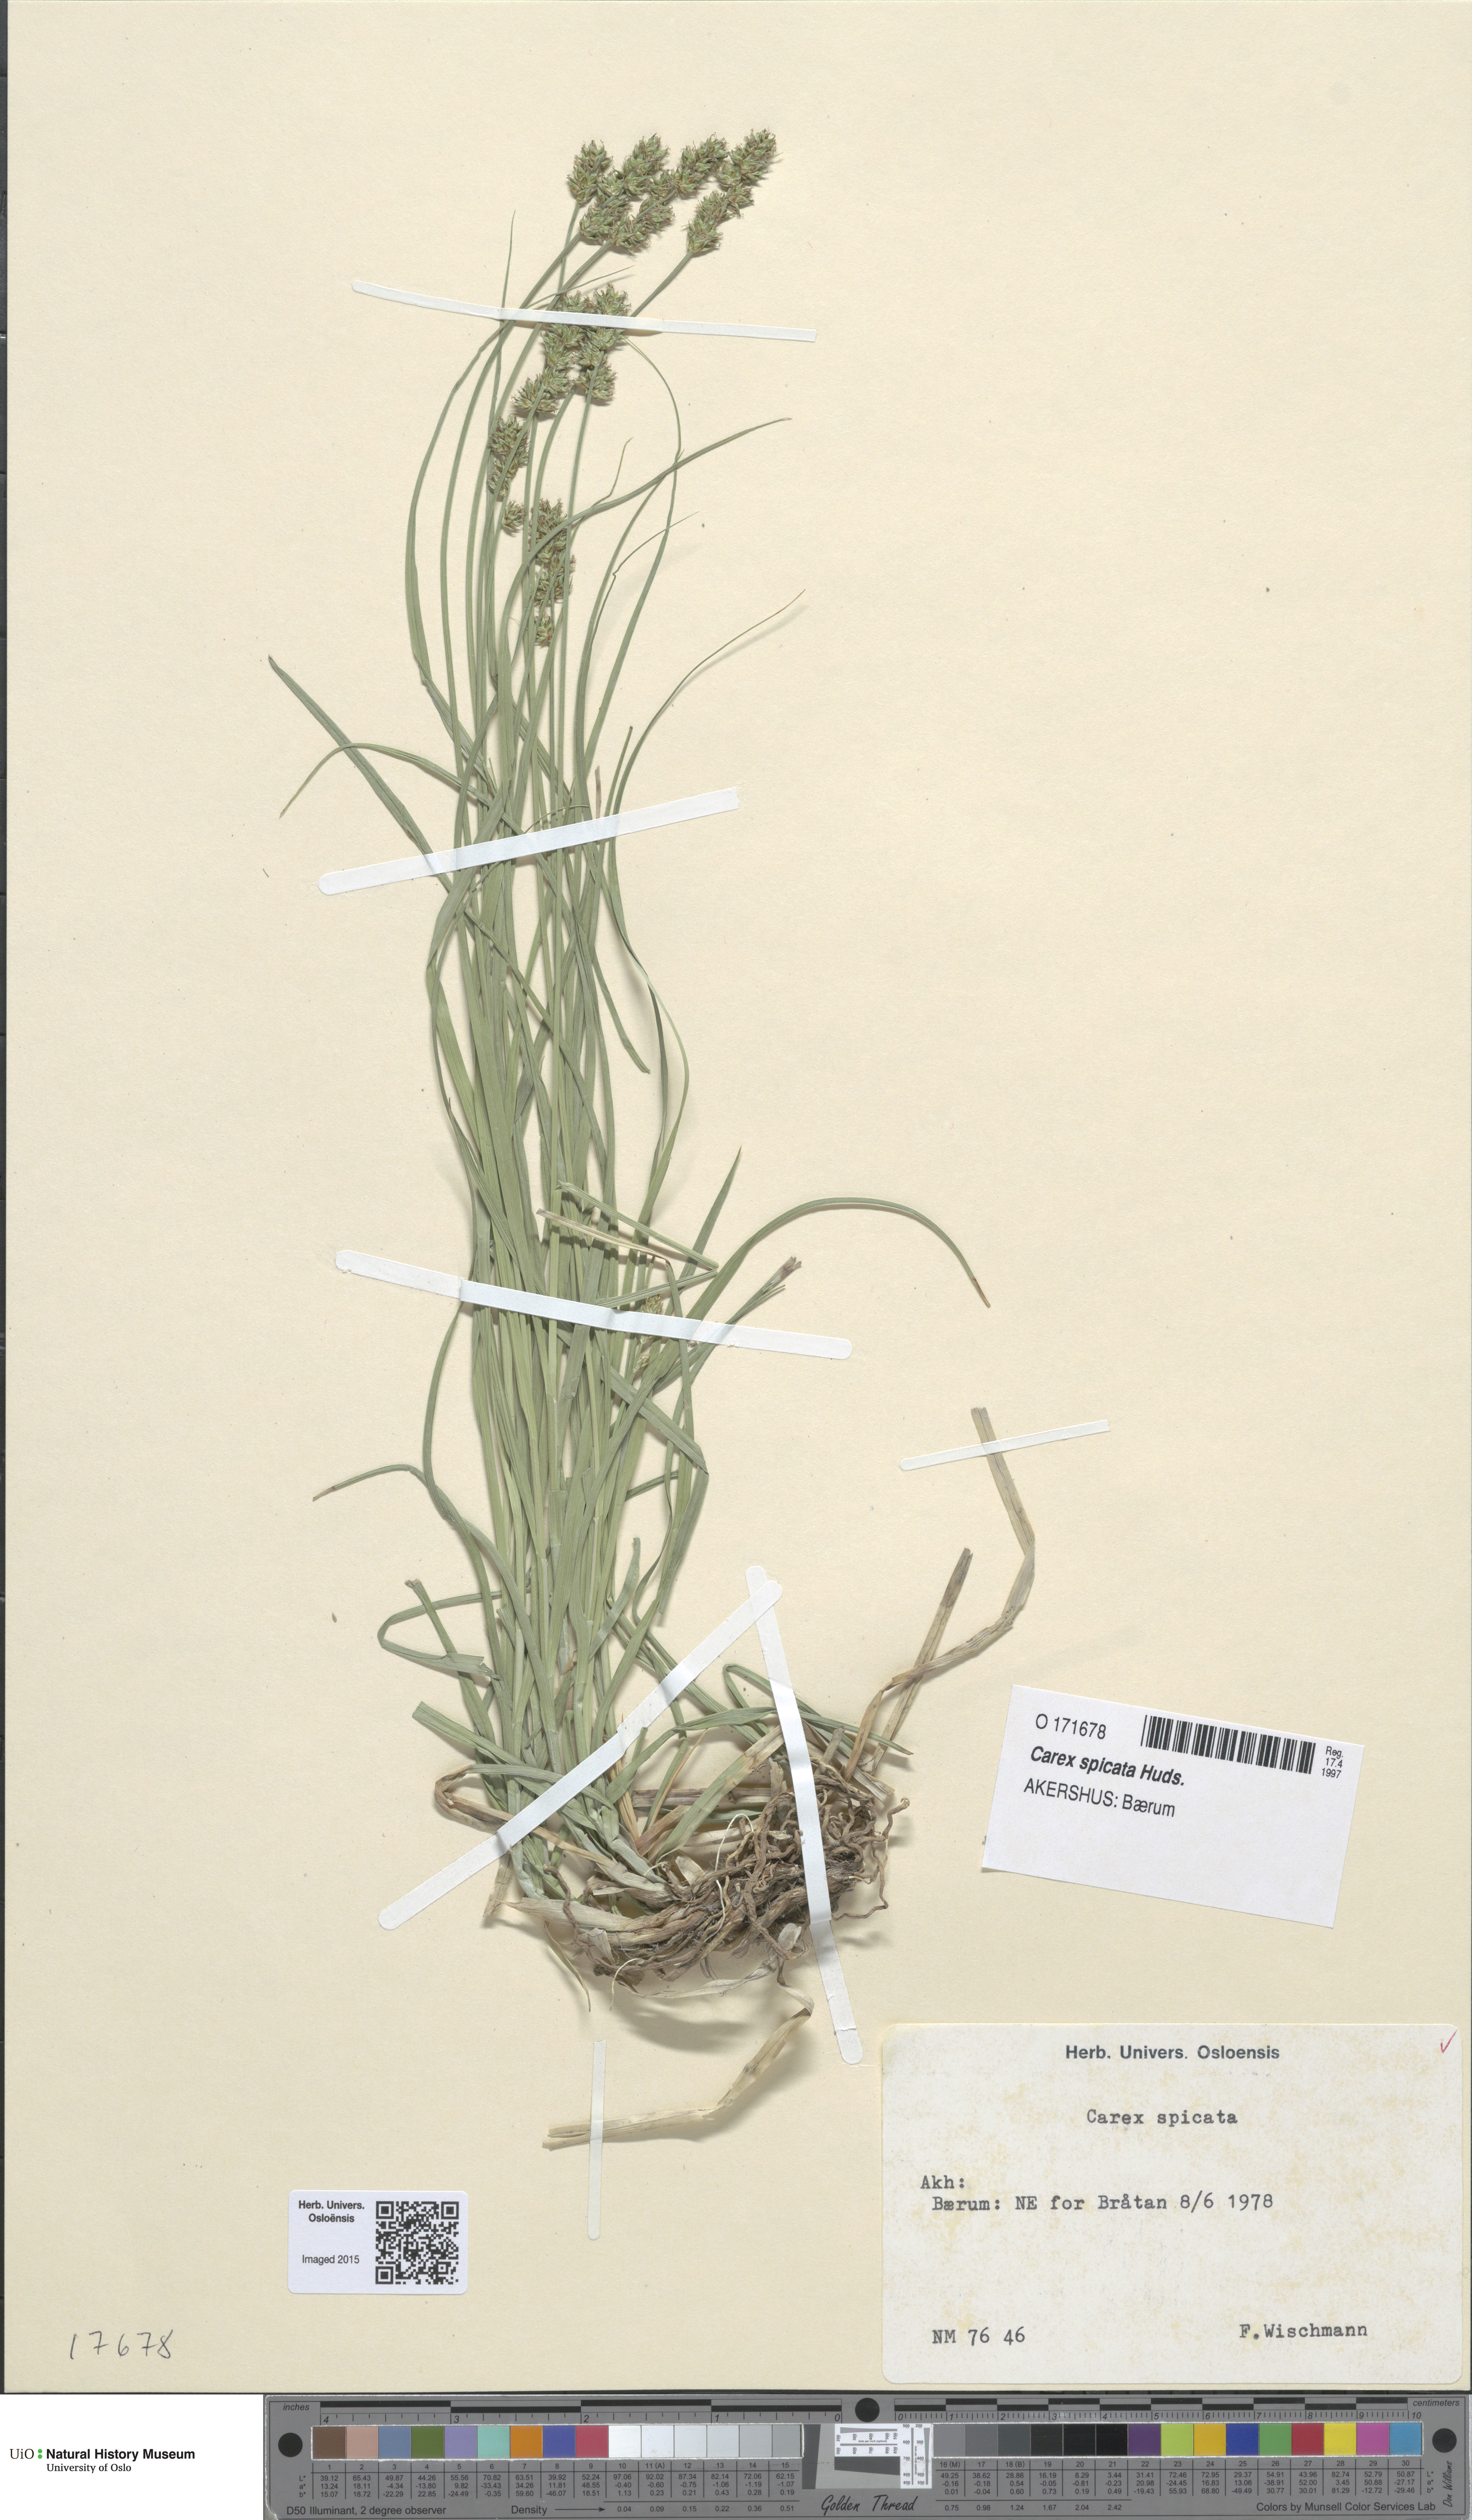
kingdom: Plantae
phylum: Tracheophyta
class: Liliopsida
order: Poales
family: Cyperaceae
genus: Carex
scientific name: Carex spicata
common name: Spiked sedge
